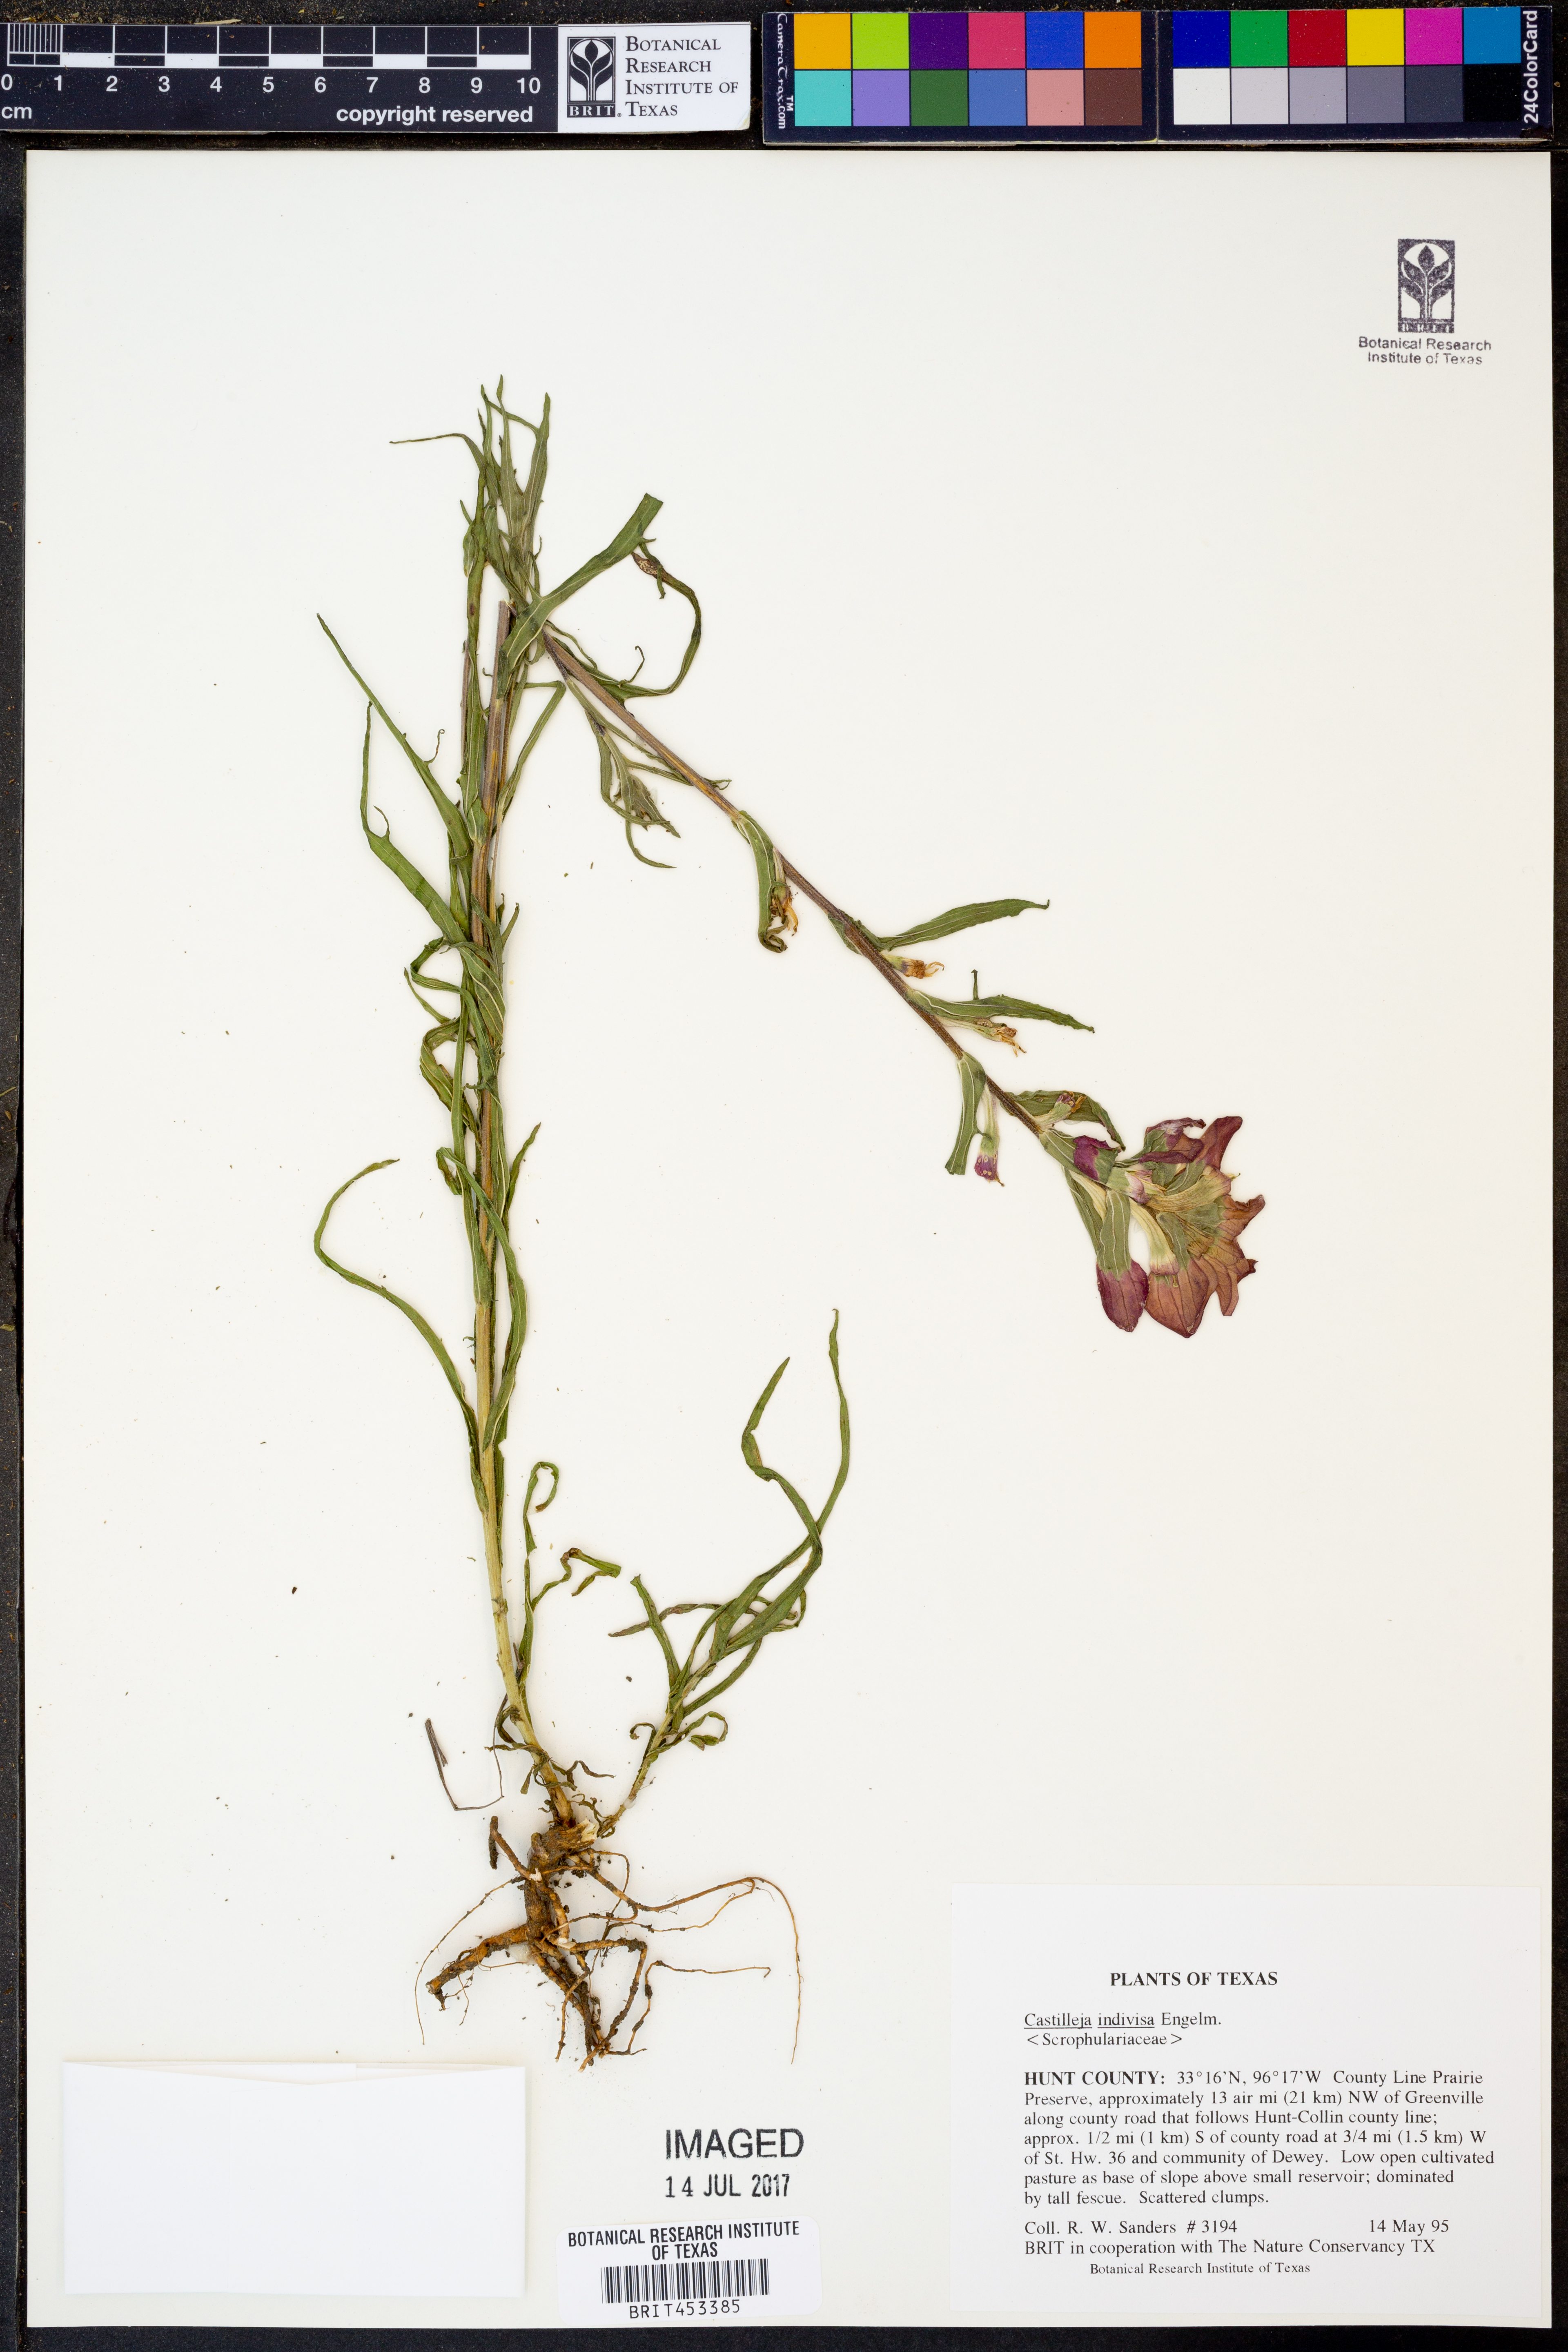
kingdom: Plantae
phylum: Tracheophyta
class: Magnoliopsida
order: Lamiales
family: Orobanchaceae
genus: Castilleja
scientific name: Castilleja indivisa
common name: Texas paintbrush
